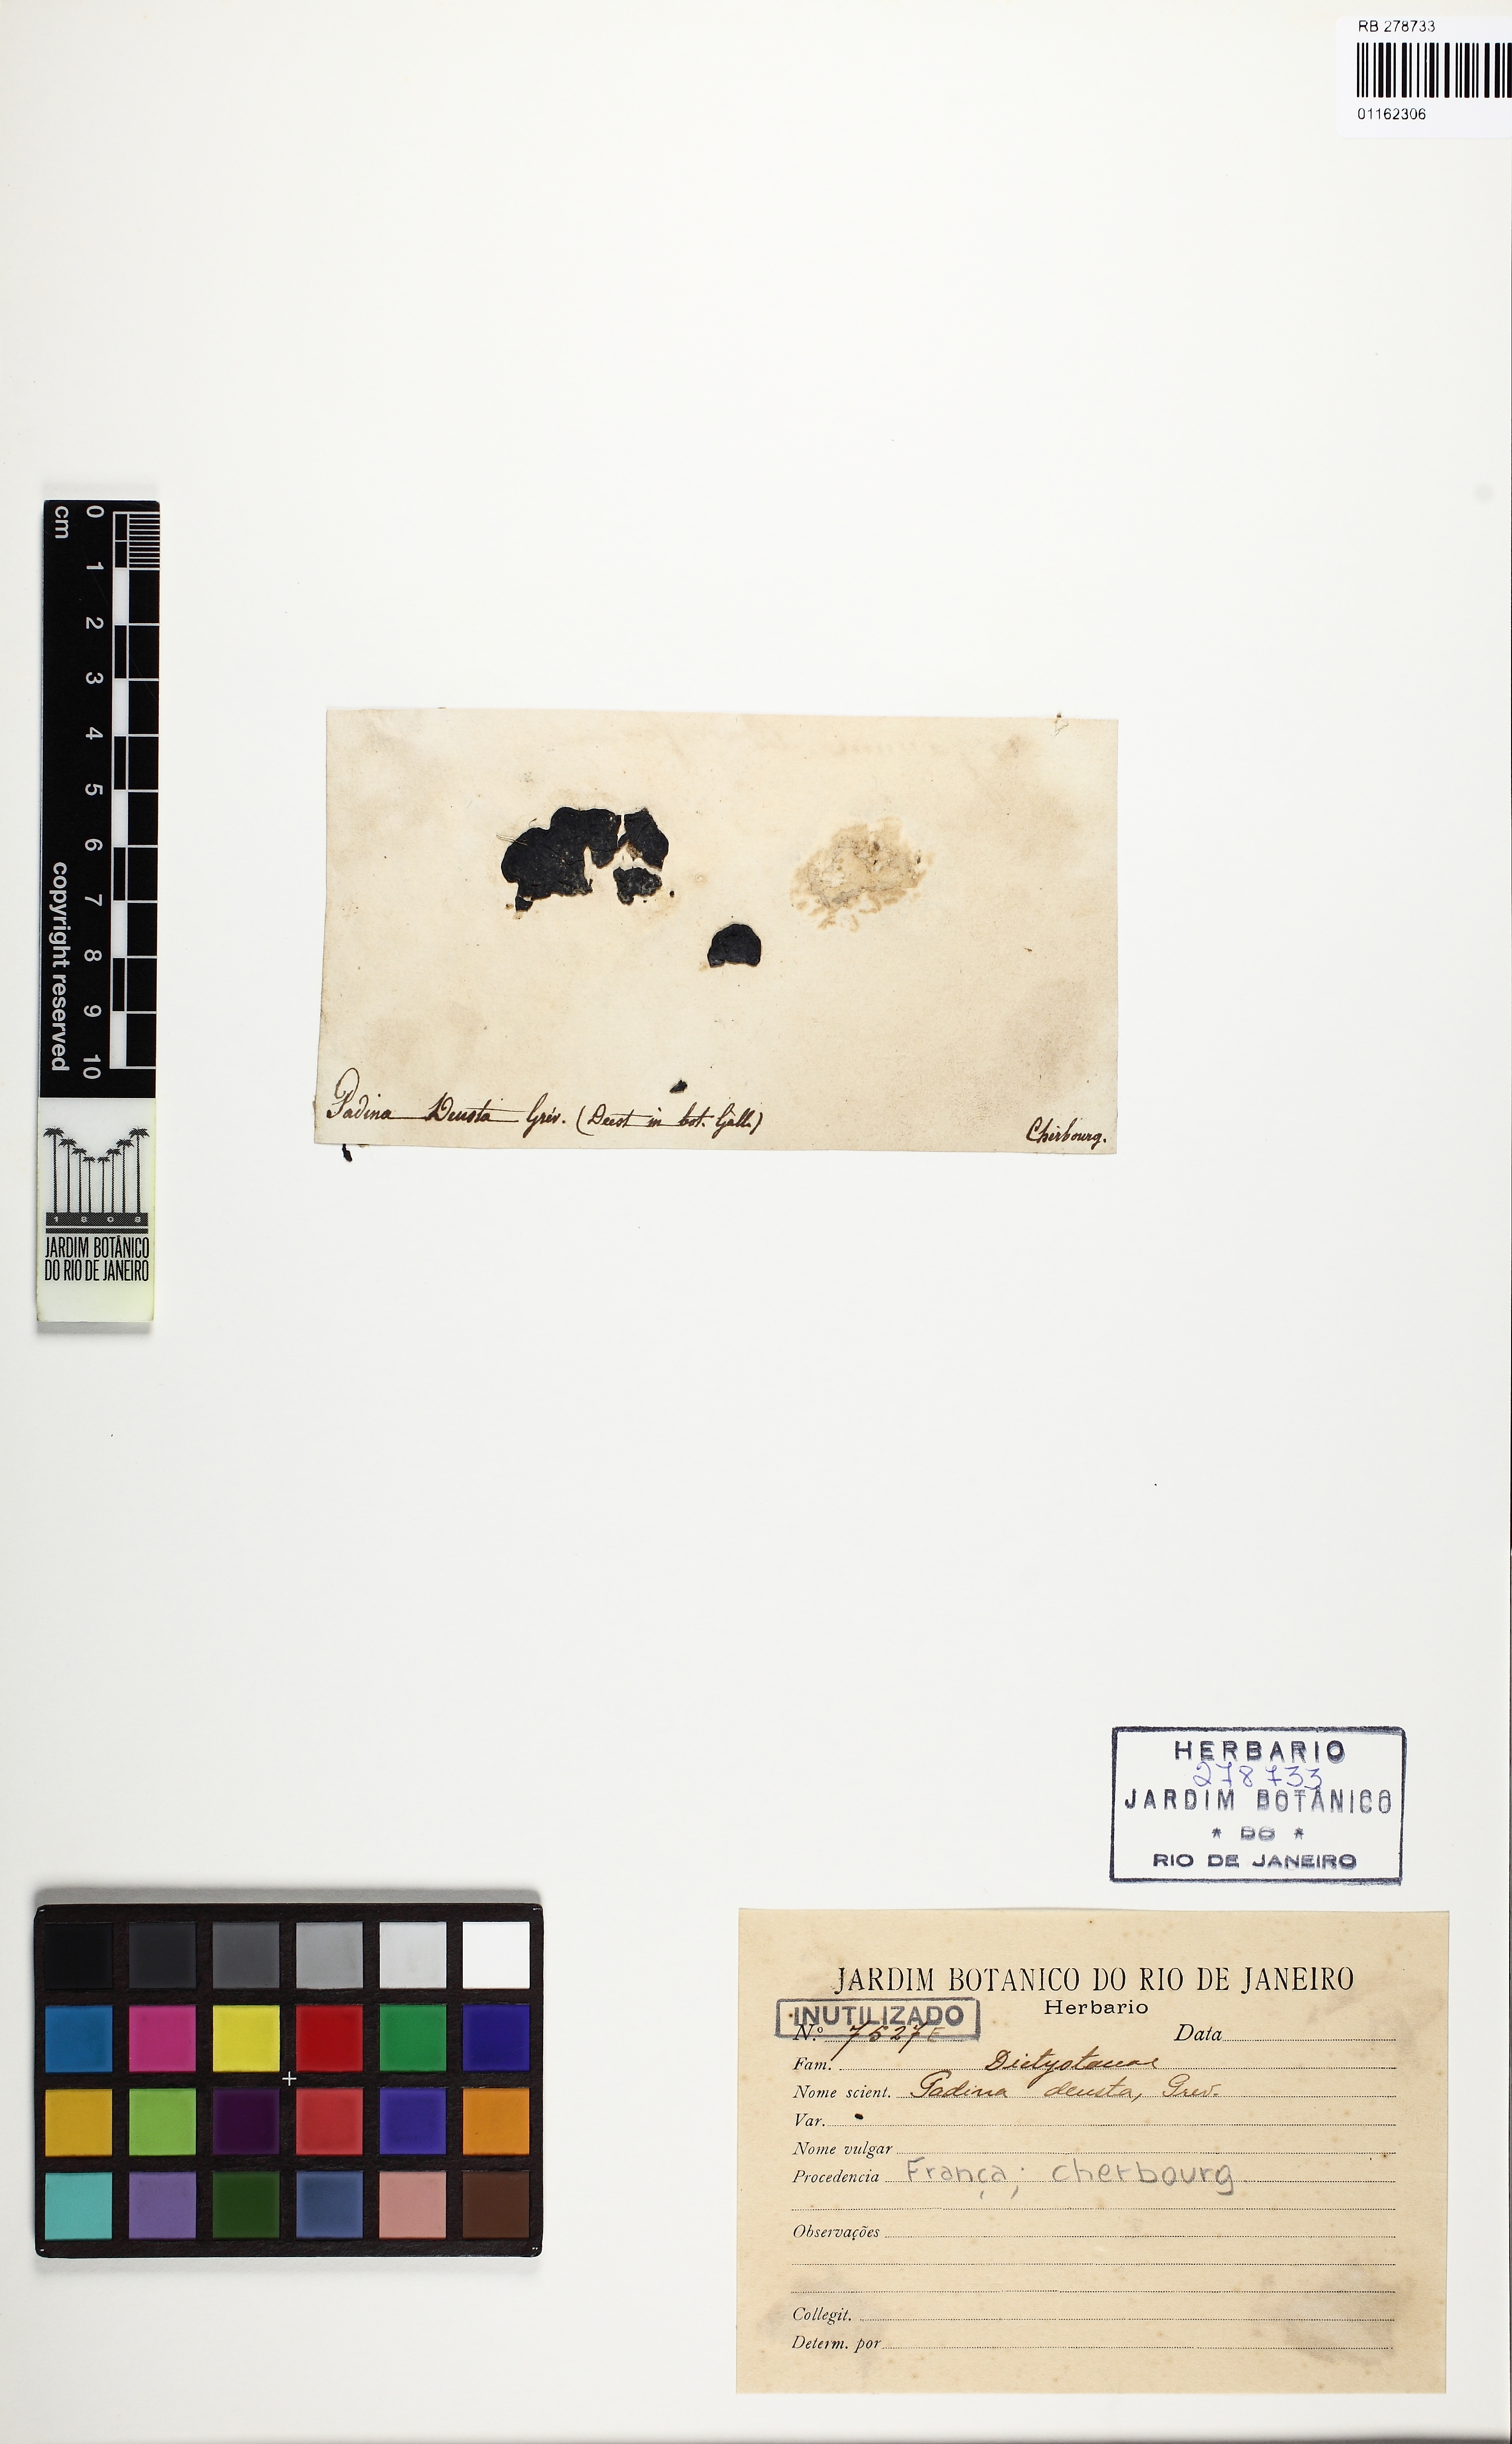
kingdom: Chromista
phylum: Ochrophyta
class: Phaeophyceae
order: Dictyotales
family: Dictyotaceae
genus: Padina
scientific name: Padina
